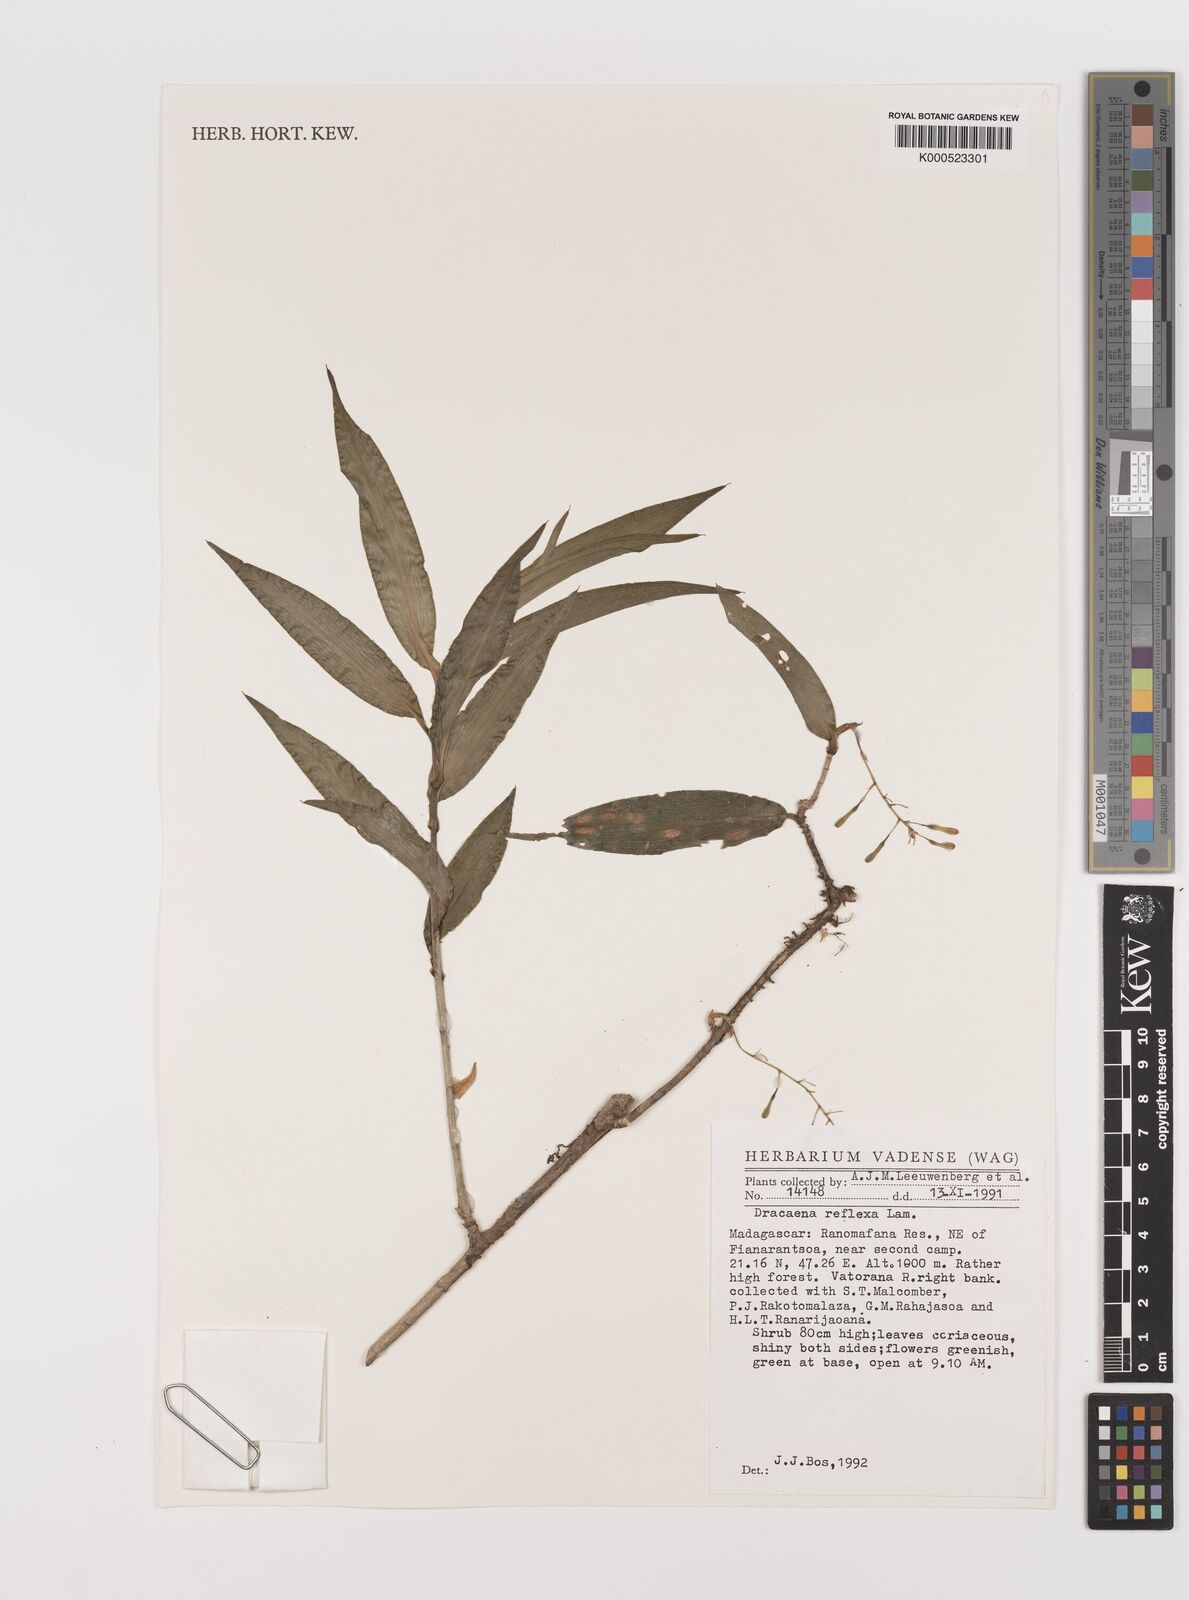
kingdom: Plantae
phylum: Tracheophyta
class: Liliopsida
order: Asparagales
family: Asparagaceae
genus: Dracaena
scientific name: Dracaena reflexa
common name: Song-of-india
